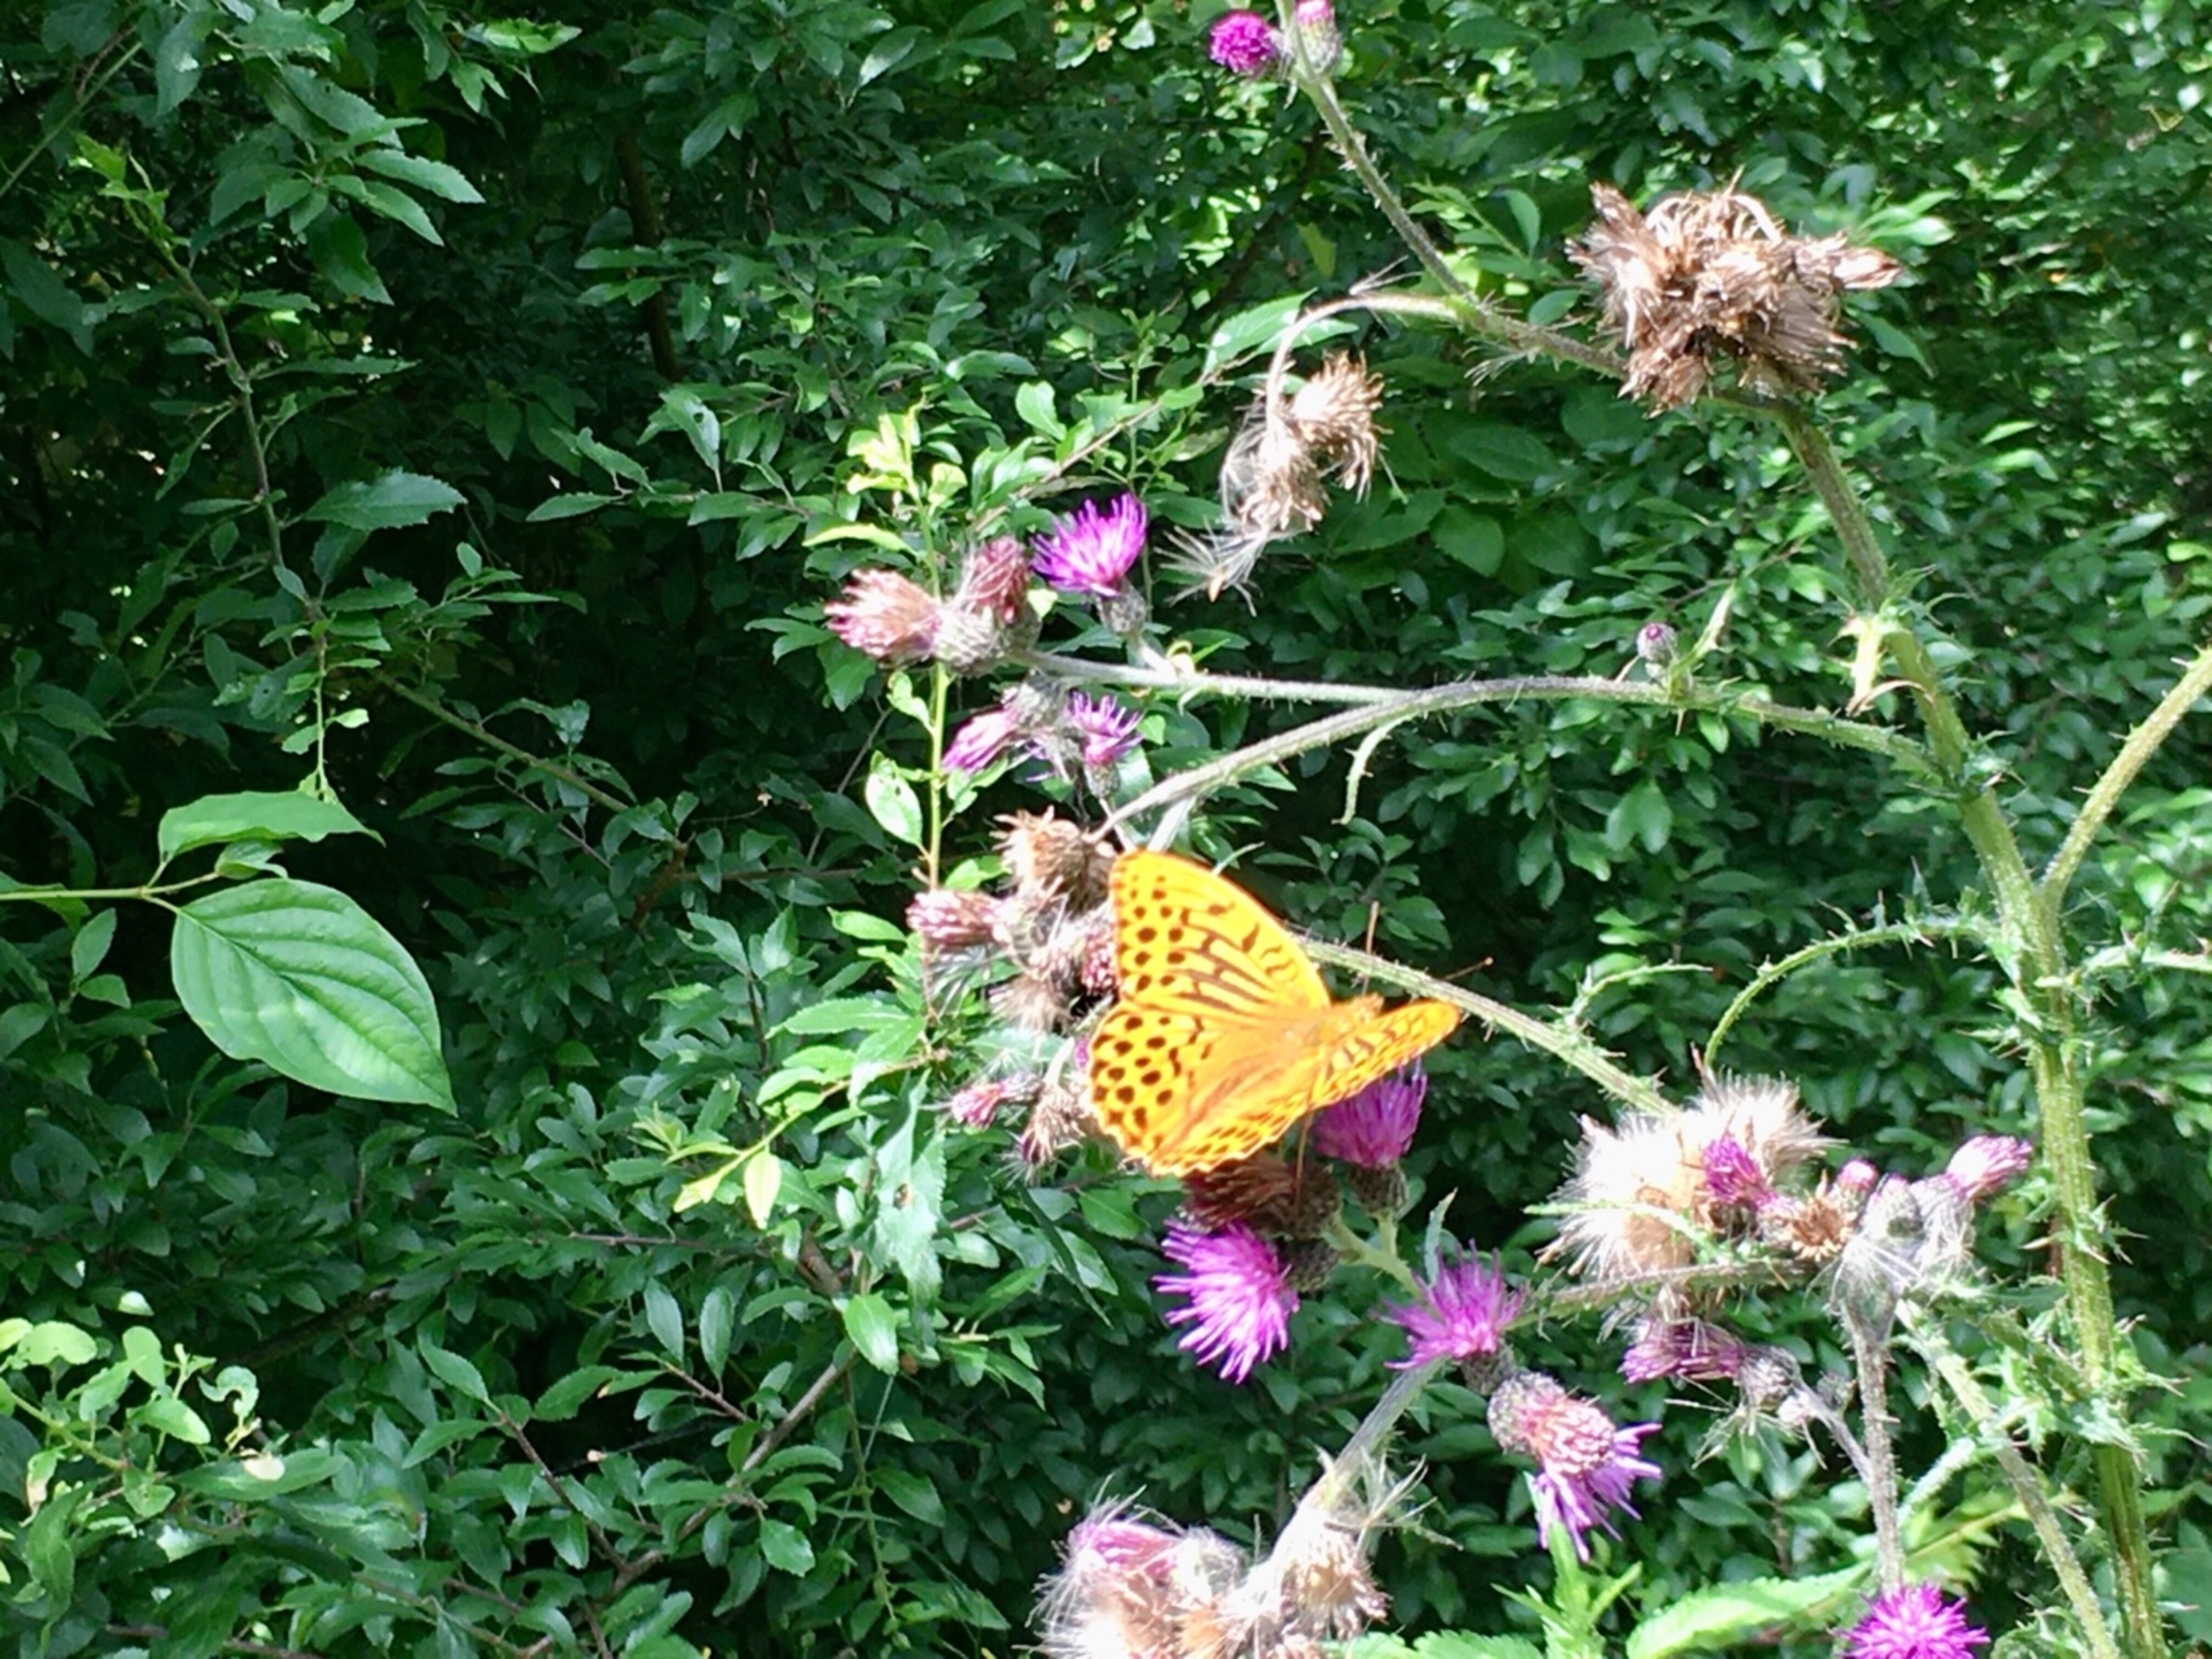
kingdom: Animalia
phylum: Arthropoda
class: Insecta
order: Lepidoptera
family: Nymphalidae
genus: Argynnis
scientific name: Argynnis paphia
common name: Kejserkåbe
